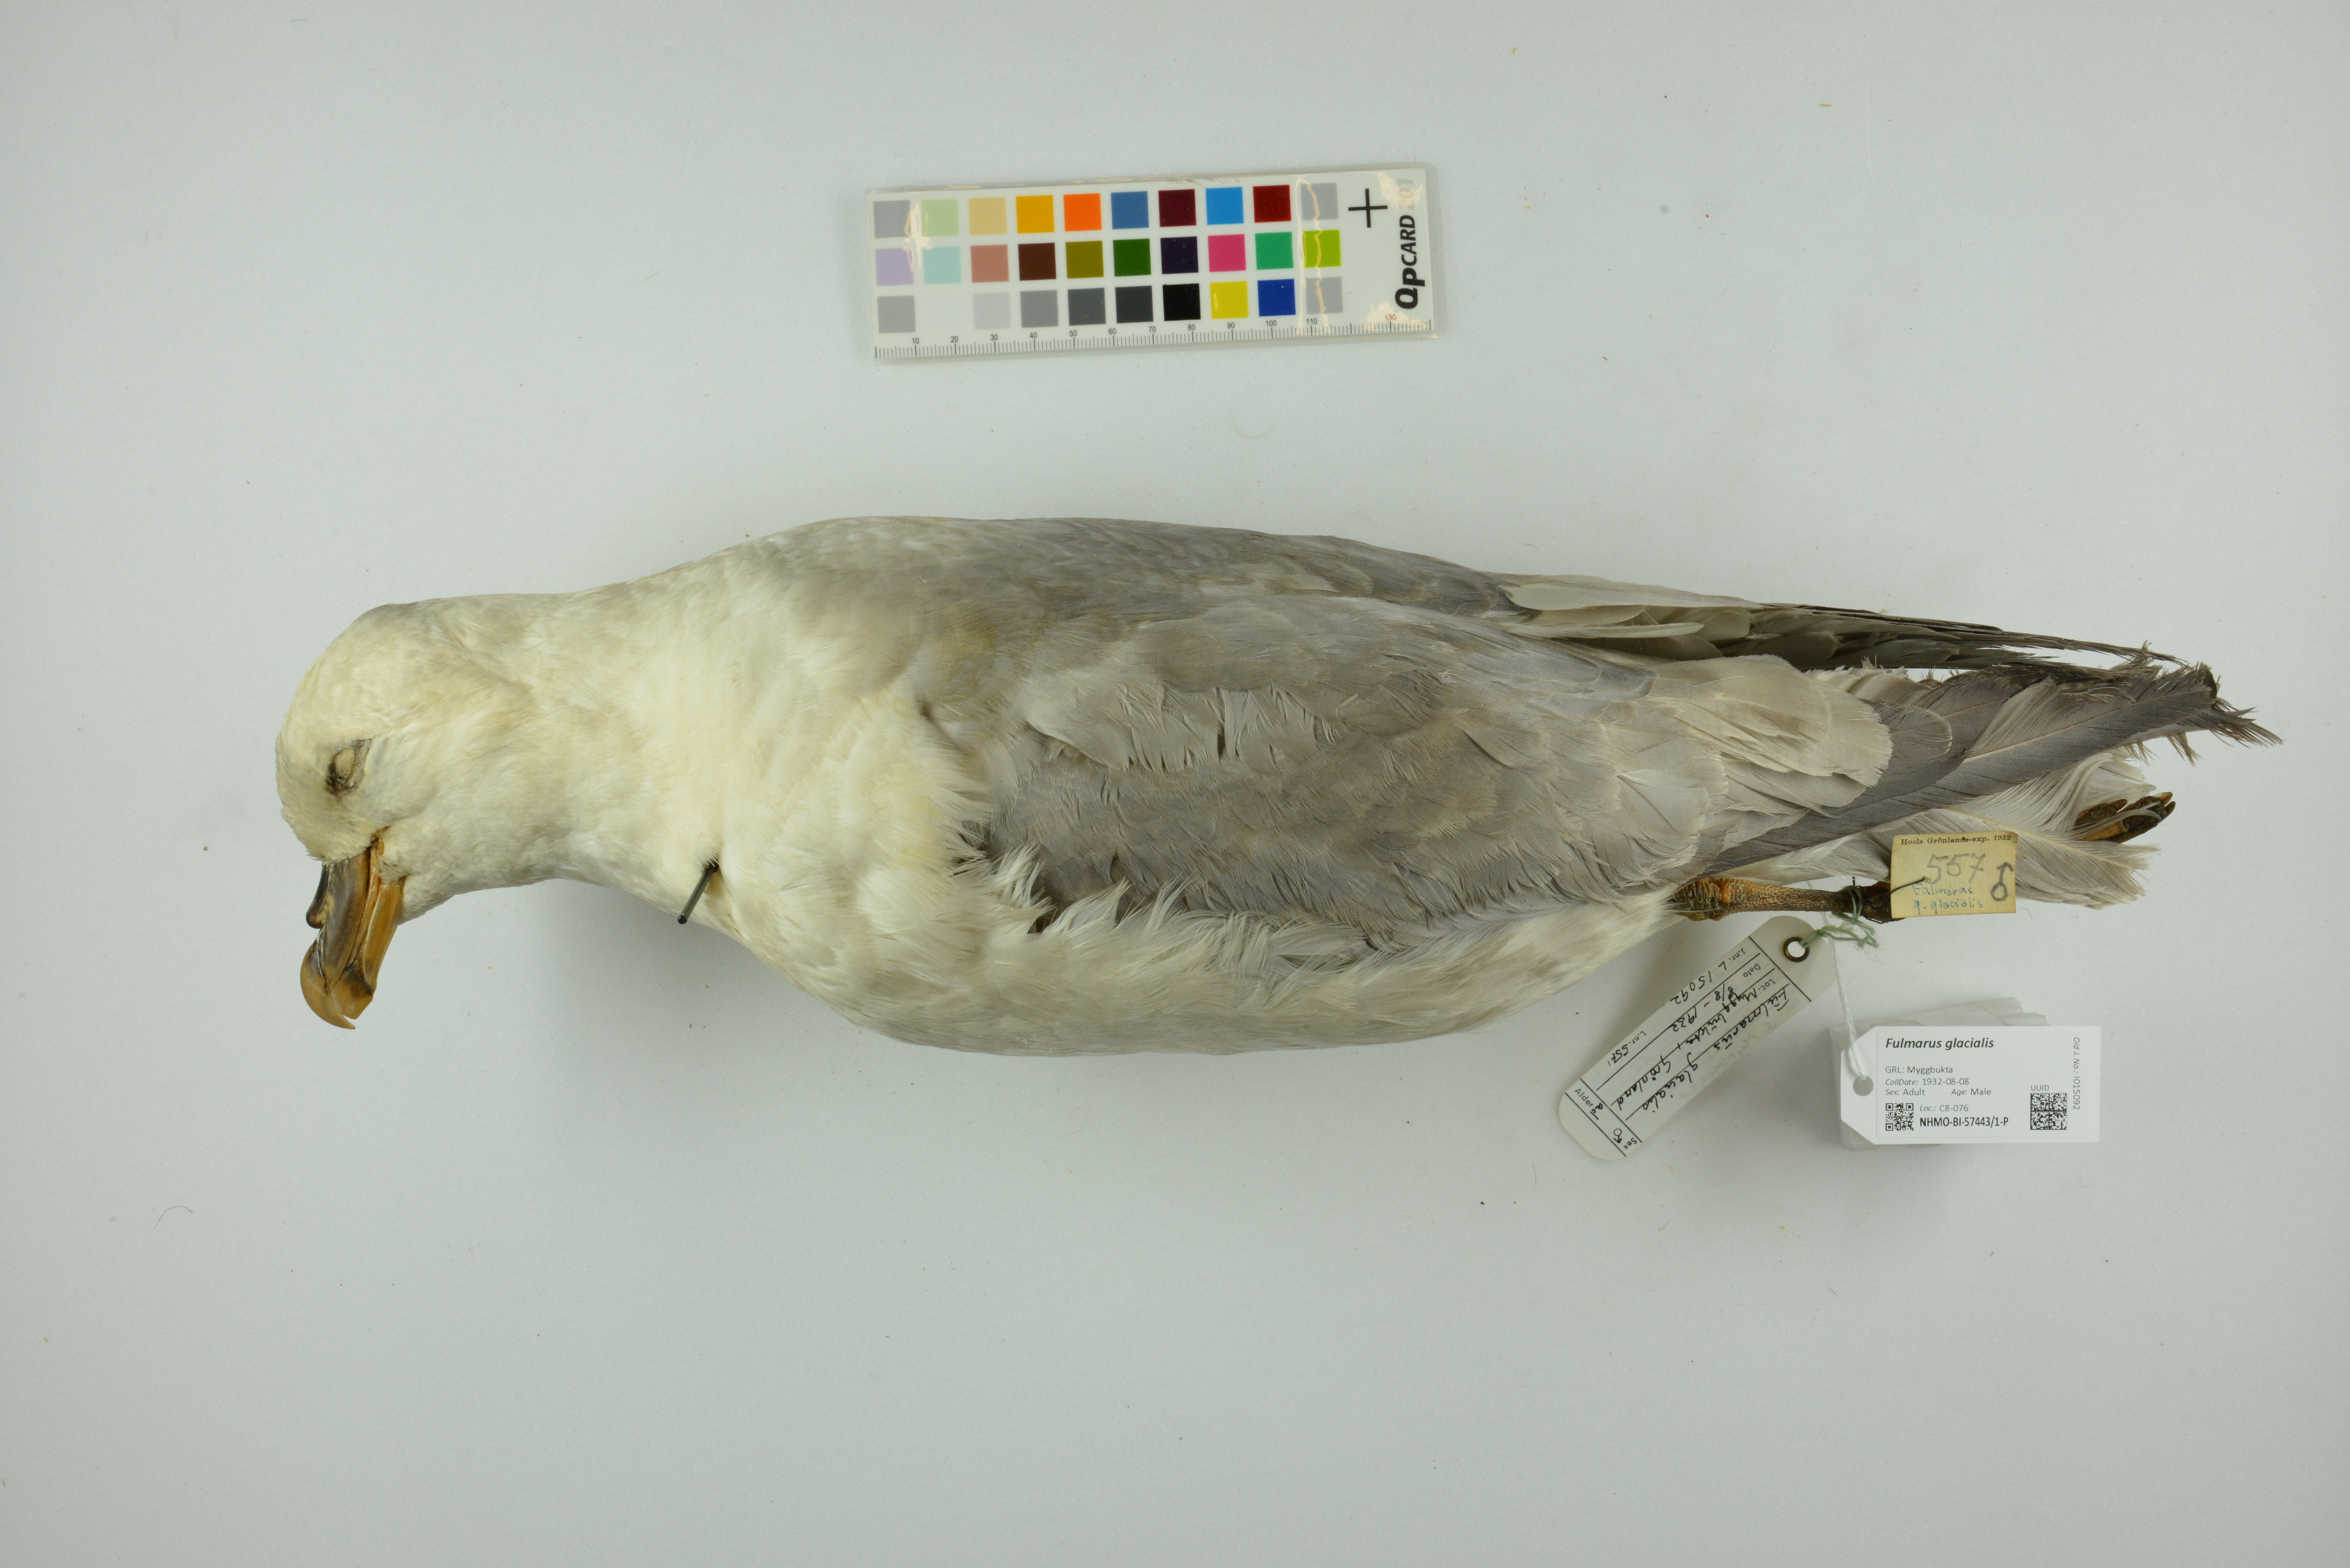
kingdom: Animalia
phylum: Chordata
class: Aves
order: Procellariiformes
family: Procellariidae
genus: Fulmarus
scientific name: Fulmarus glacialis
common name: Northern fulmar
